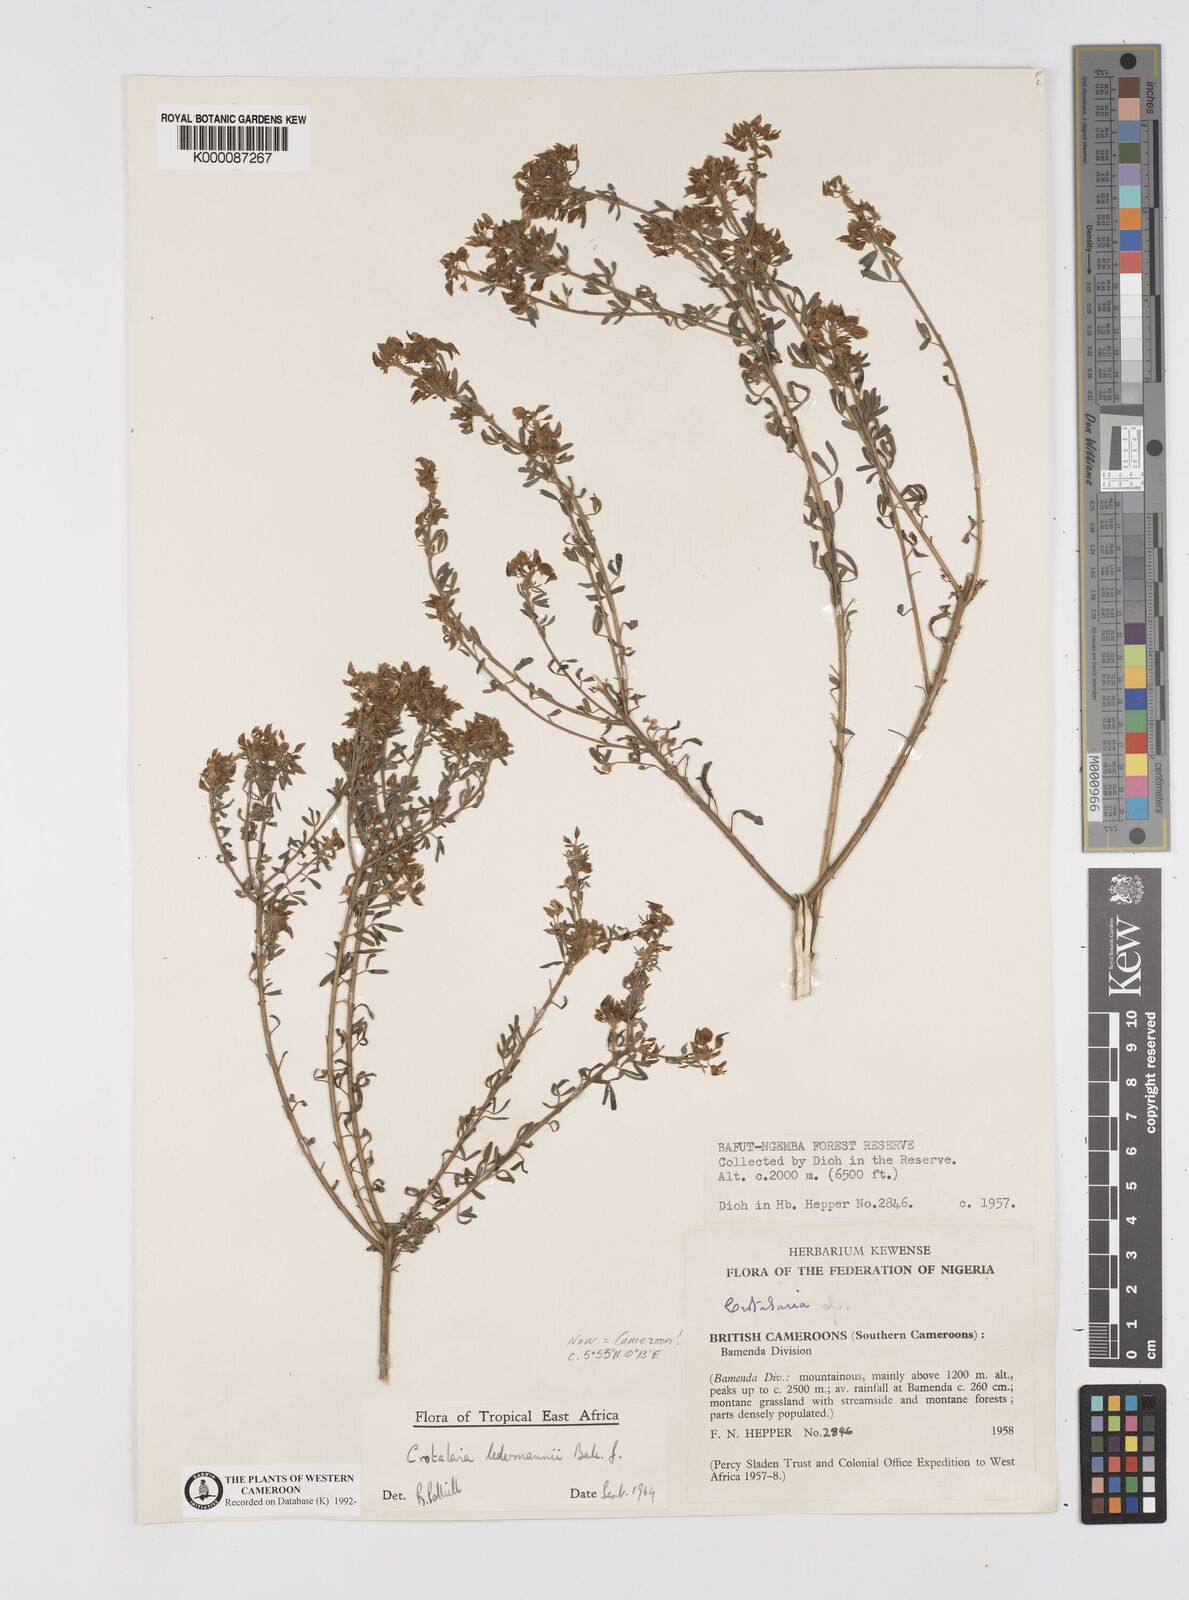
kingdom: Plantae
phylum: Tracheophyta
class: Magnoliopsida
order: Fabales
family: Fabaceae
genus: Crotalaria
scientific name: Crotalaria ledermannii
